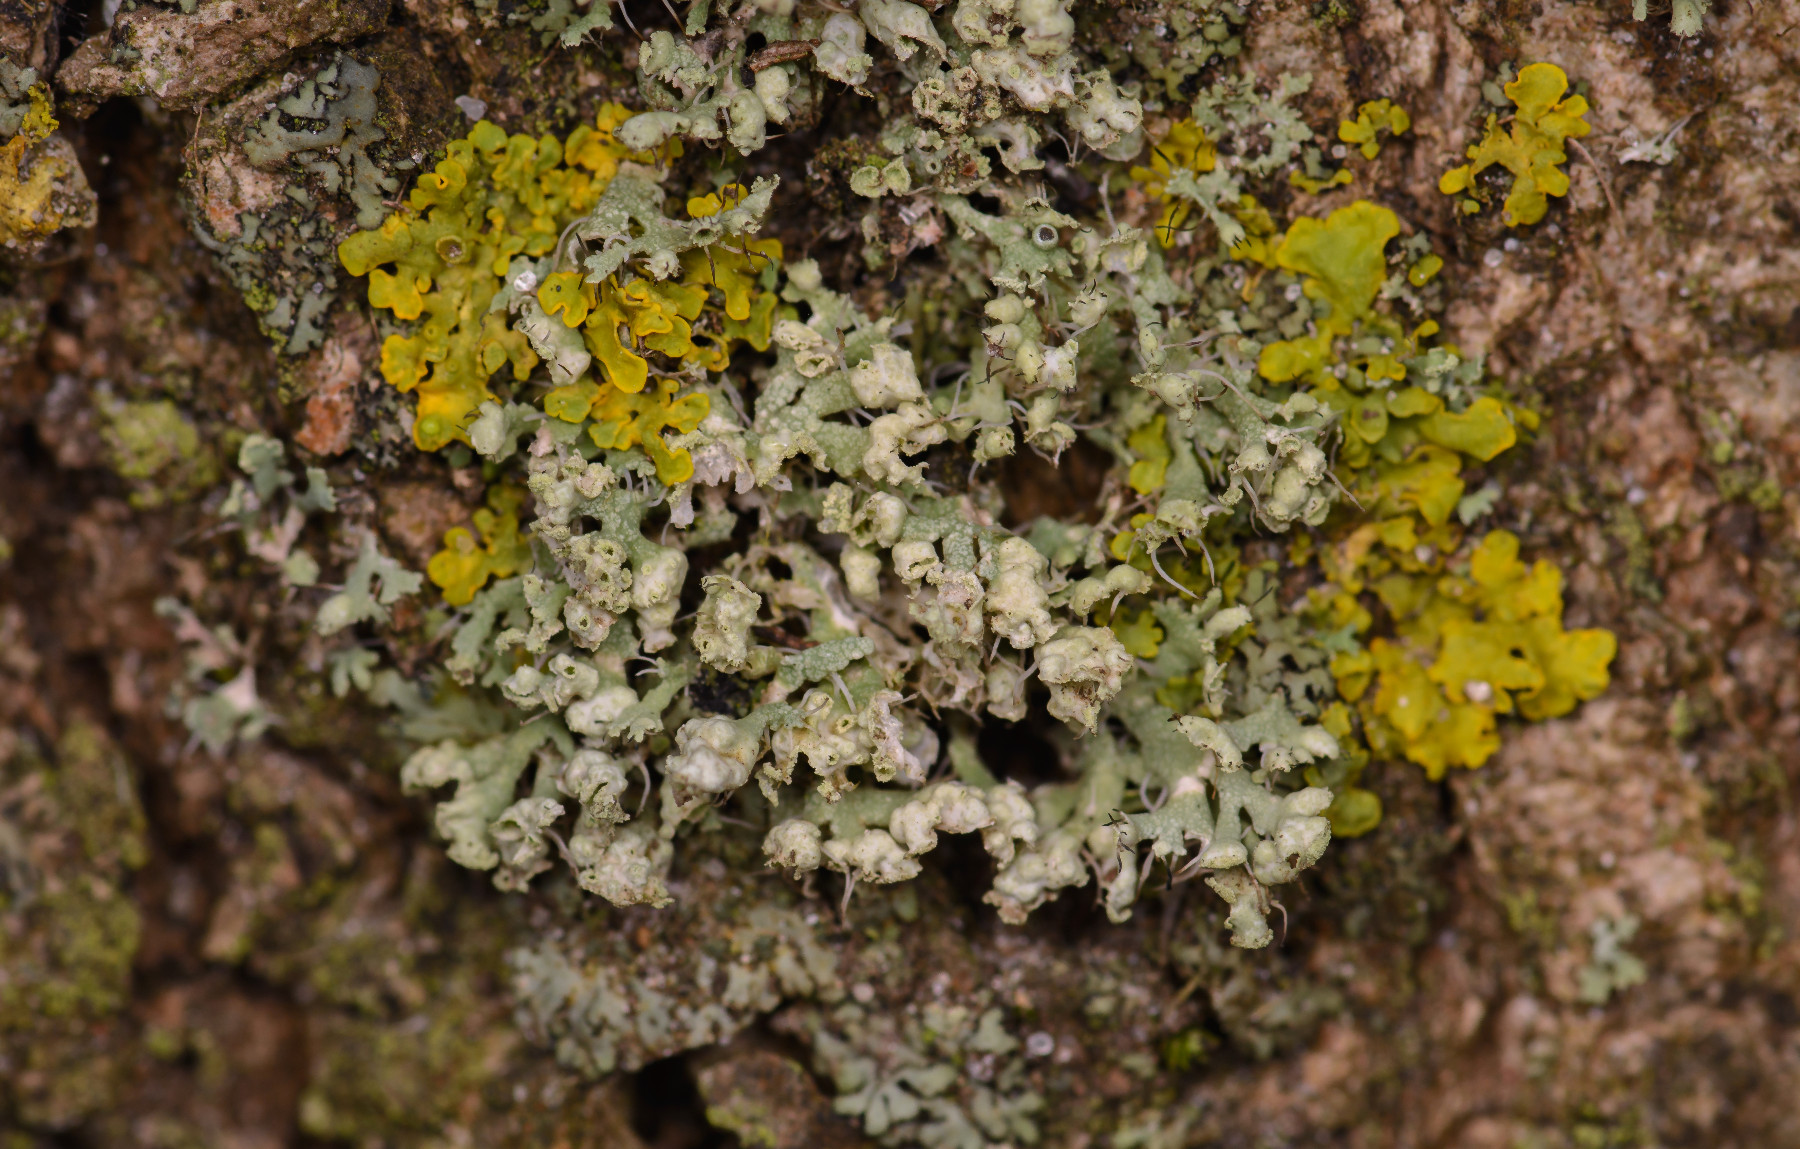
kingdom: Fungi
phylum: Ascomycota
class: Lecanoromycetes
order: Caliciales
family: Physciaceae
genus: Physcia
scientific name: Physcia adscendens
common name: hætte-rosetlav
